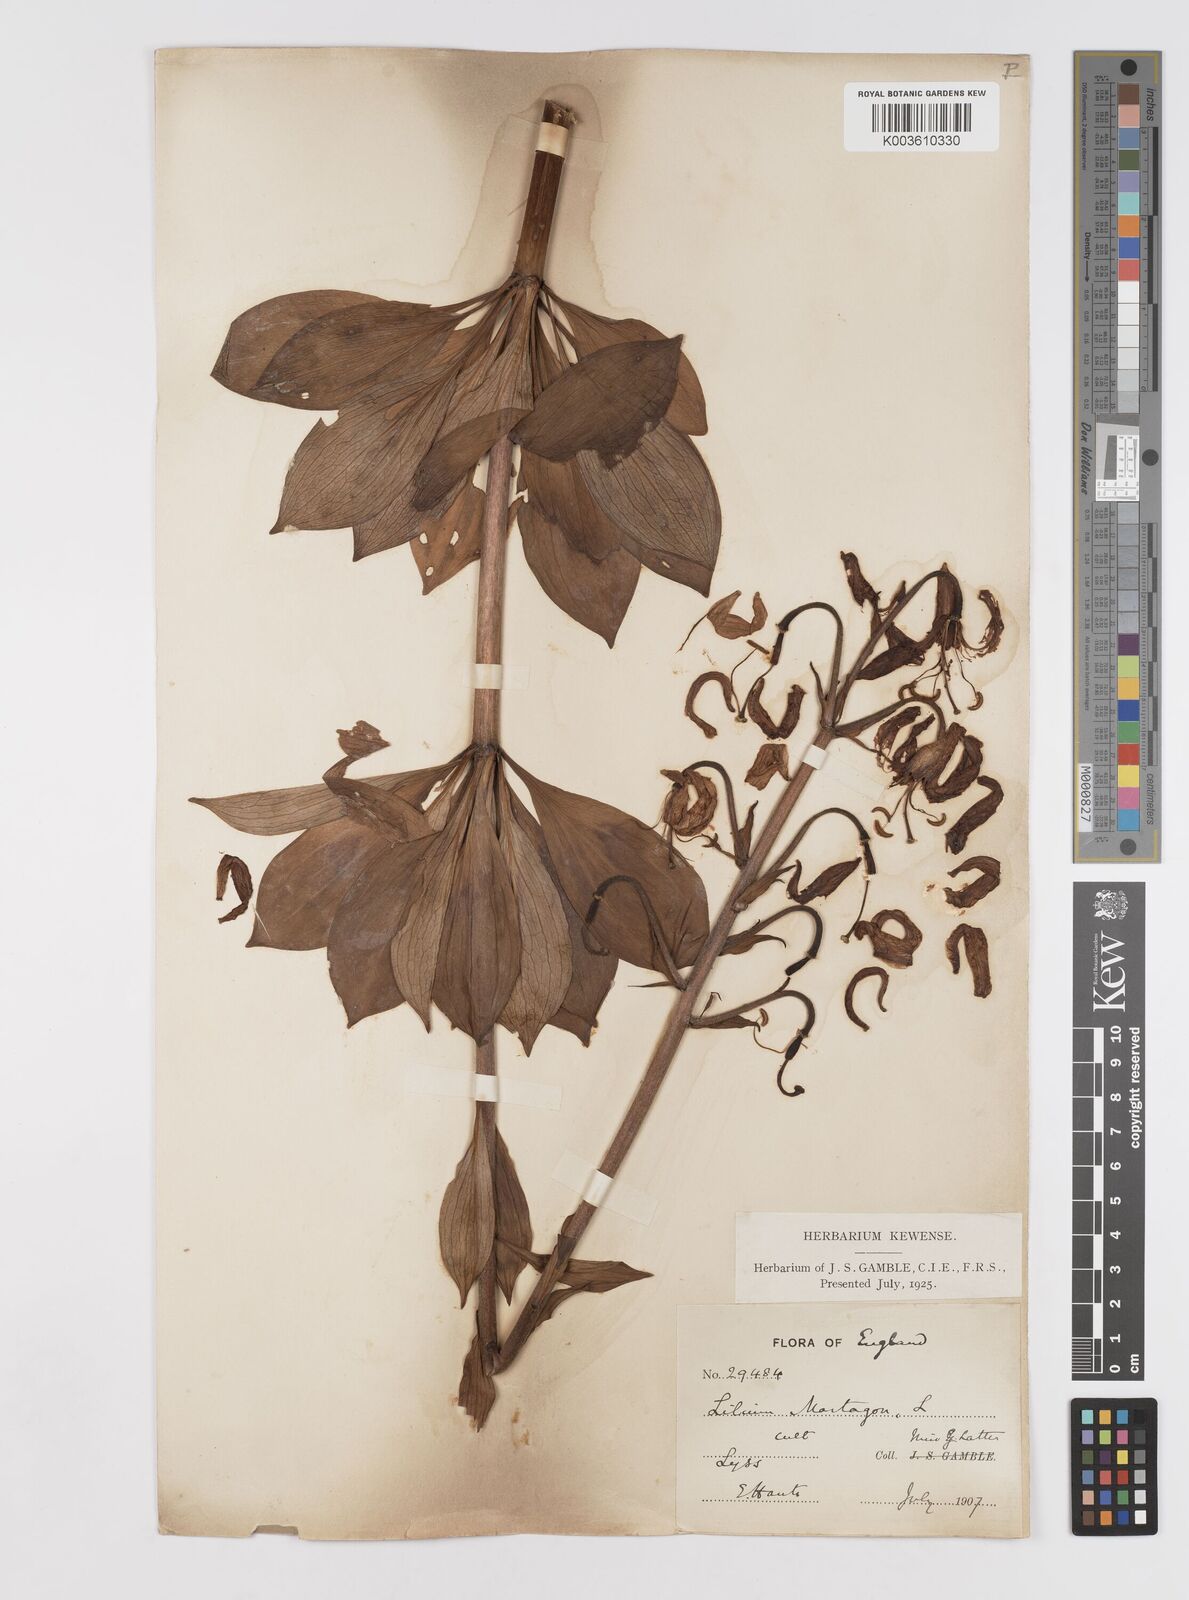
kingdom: Plantae
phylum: Tracheophyta
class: Liliopsida
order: Liliales
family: Liliaceae
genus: Lilium
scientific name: Lilium martagon
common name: Martagon lily
